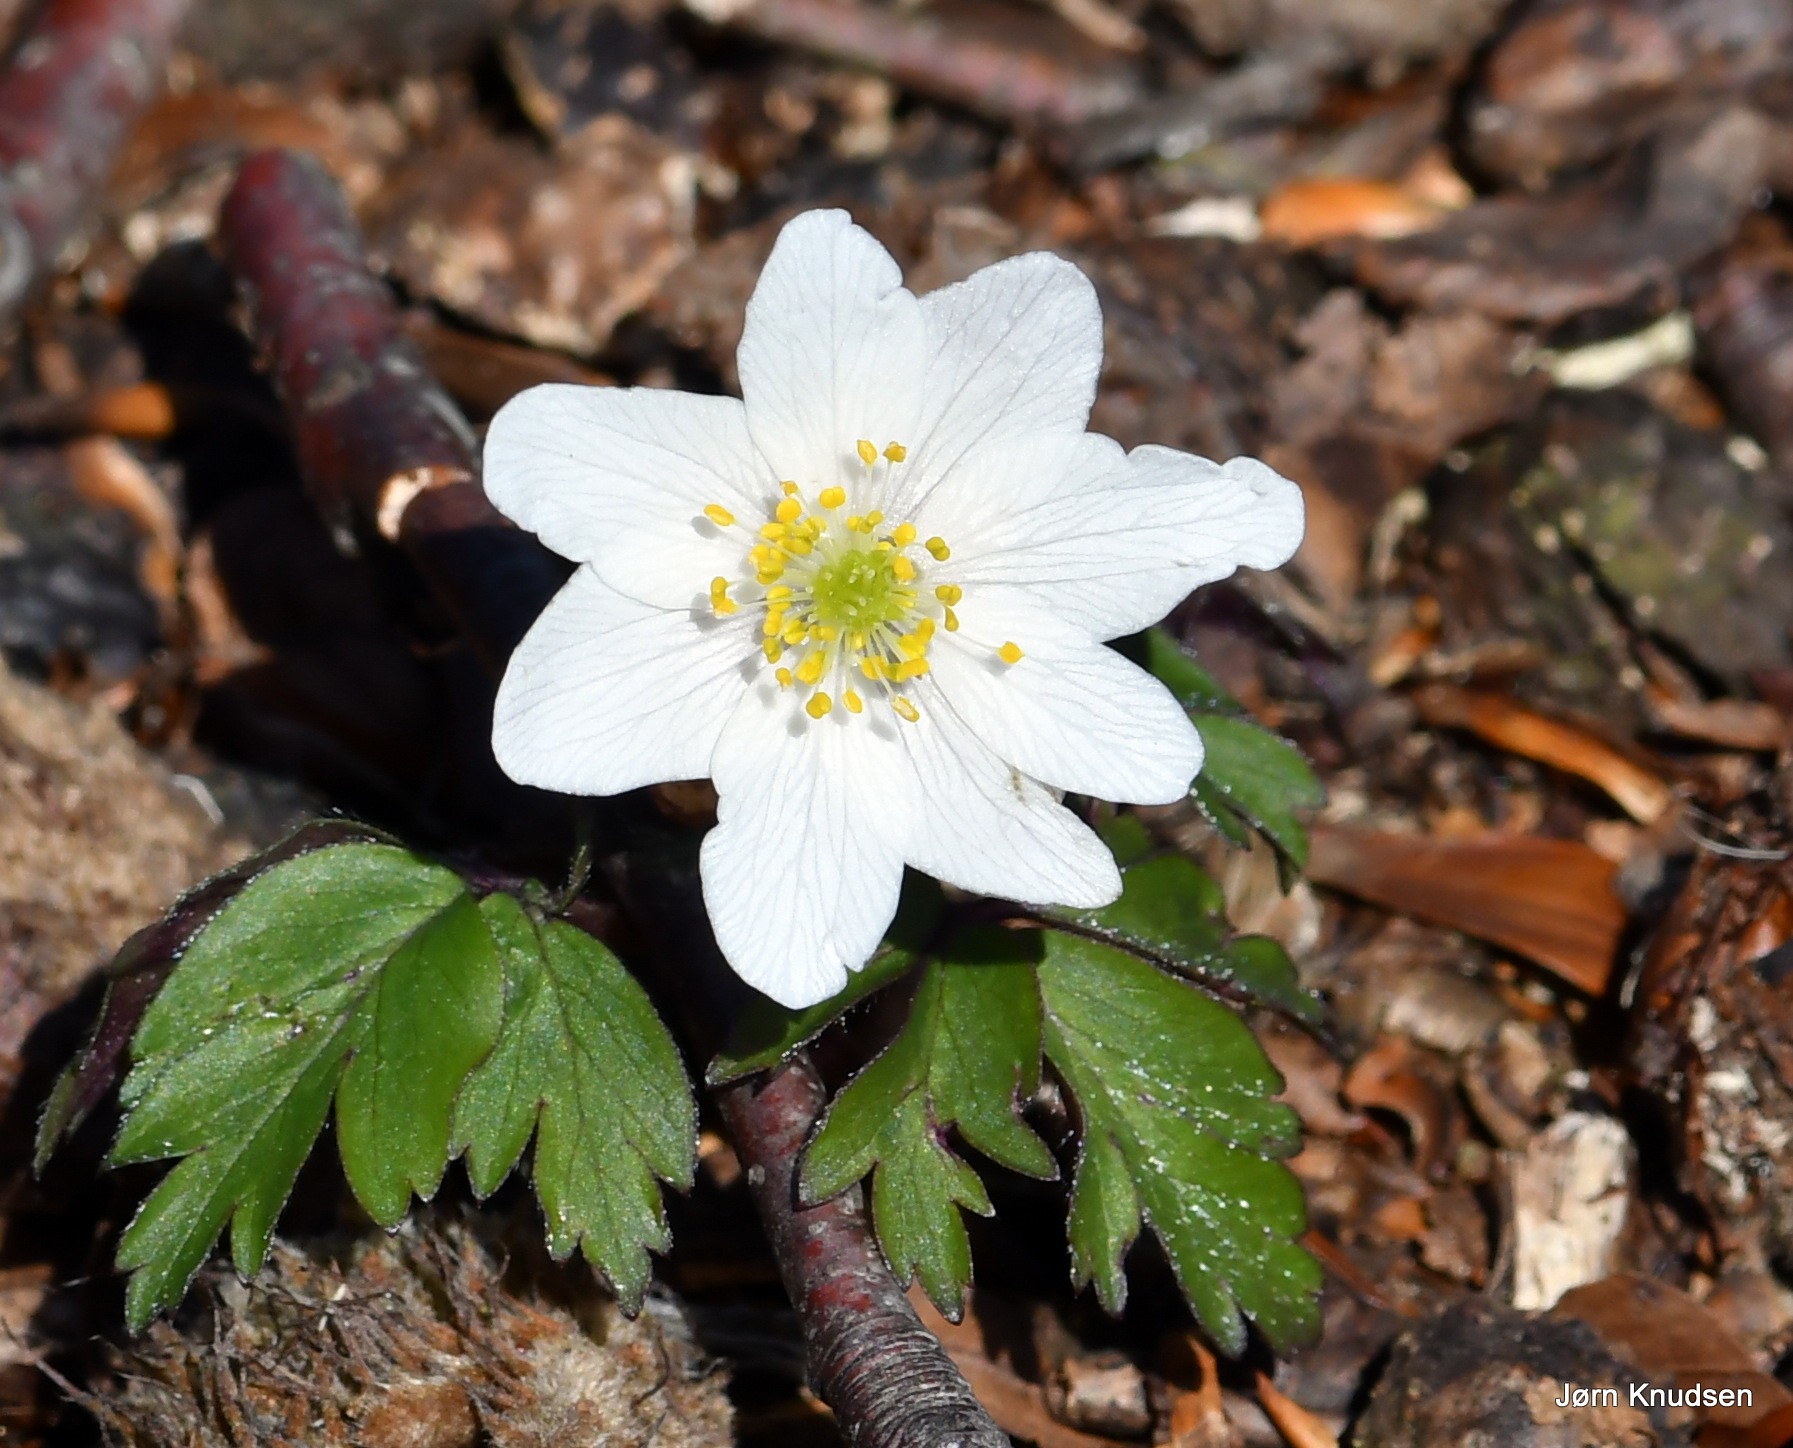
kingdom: Plantae
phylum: Tracheophyta
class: Magnoliopsida
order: Ranunculales
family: Ranunculaceae
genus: Anemone
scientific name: Anemone nemorosa
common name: Hvid anemone
